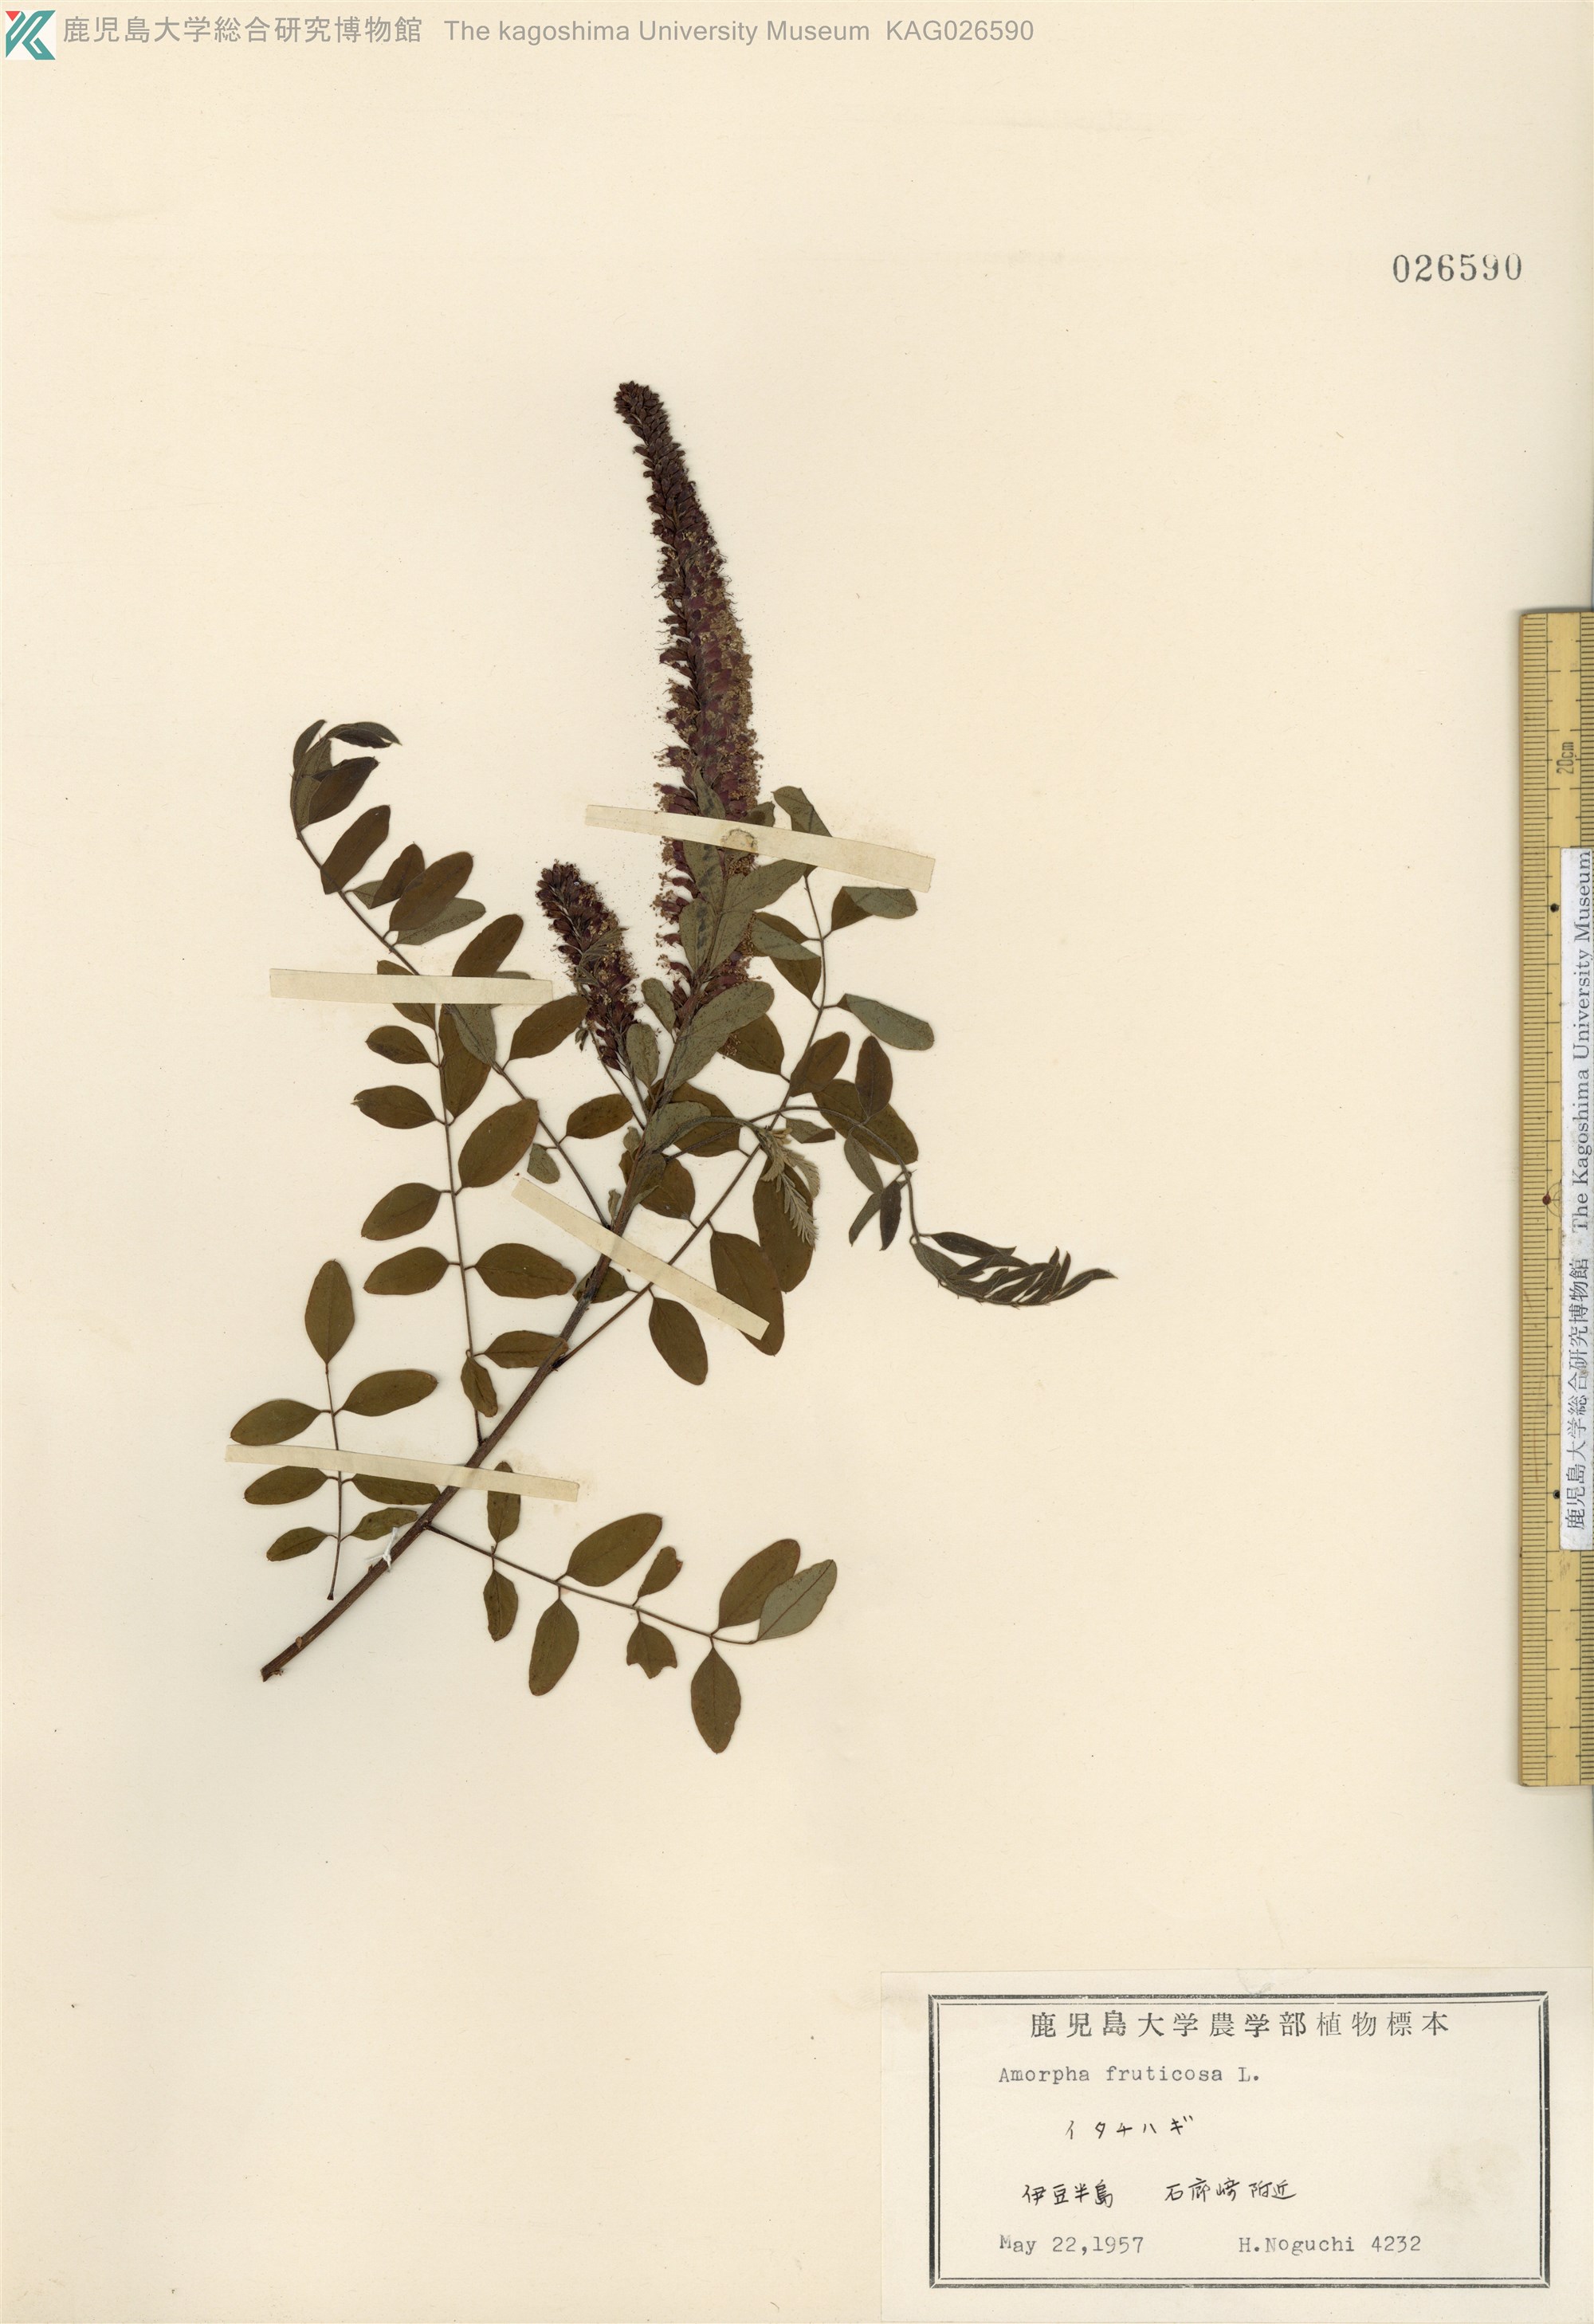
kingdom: Plantae
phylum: Tracheophyta
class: Magnoliopsida
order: Fabales
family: Fabaceae
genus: Amorpha
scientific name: Amorpha fruticosa
